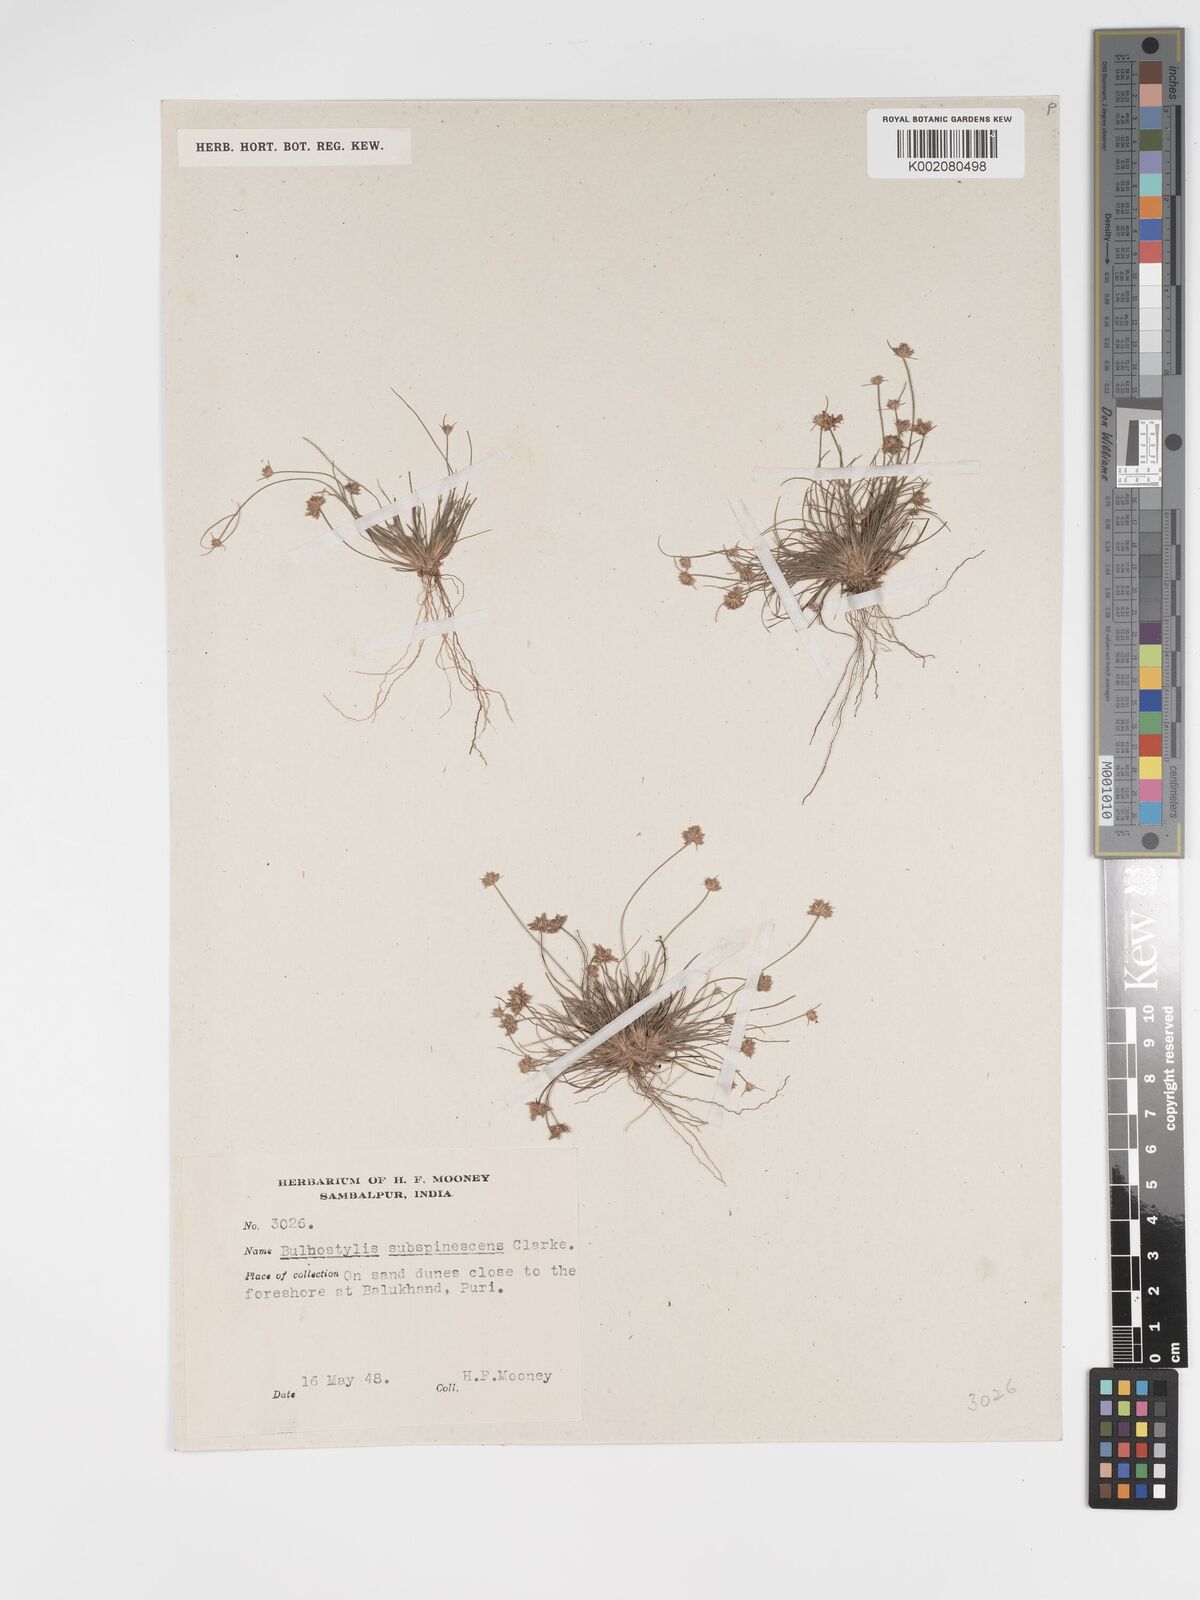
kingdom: Plantae
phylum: Tracheophyta
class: Liliopsida
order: Poales
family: Cyperaceae
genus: Bulbostylis
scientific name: Bulbostylis subspinescens
